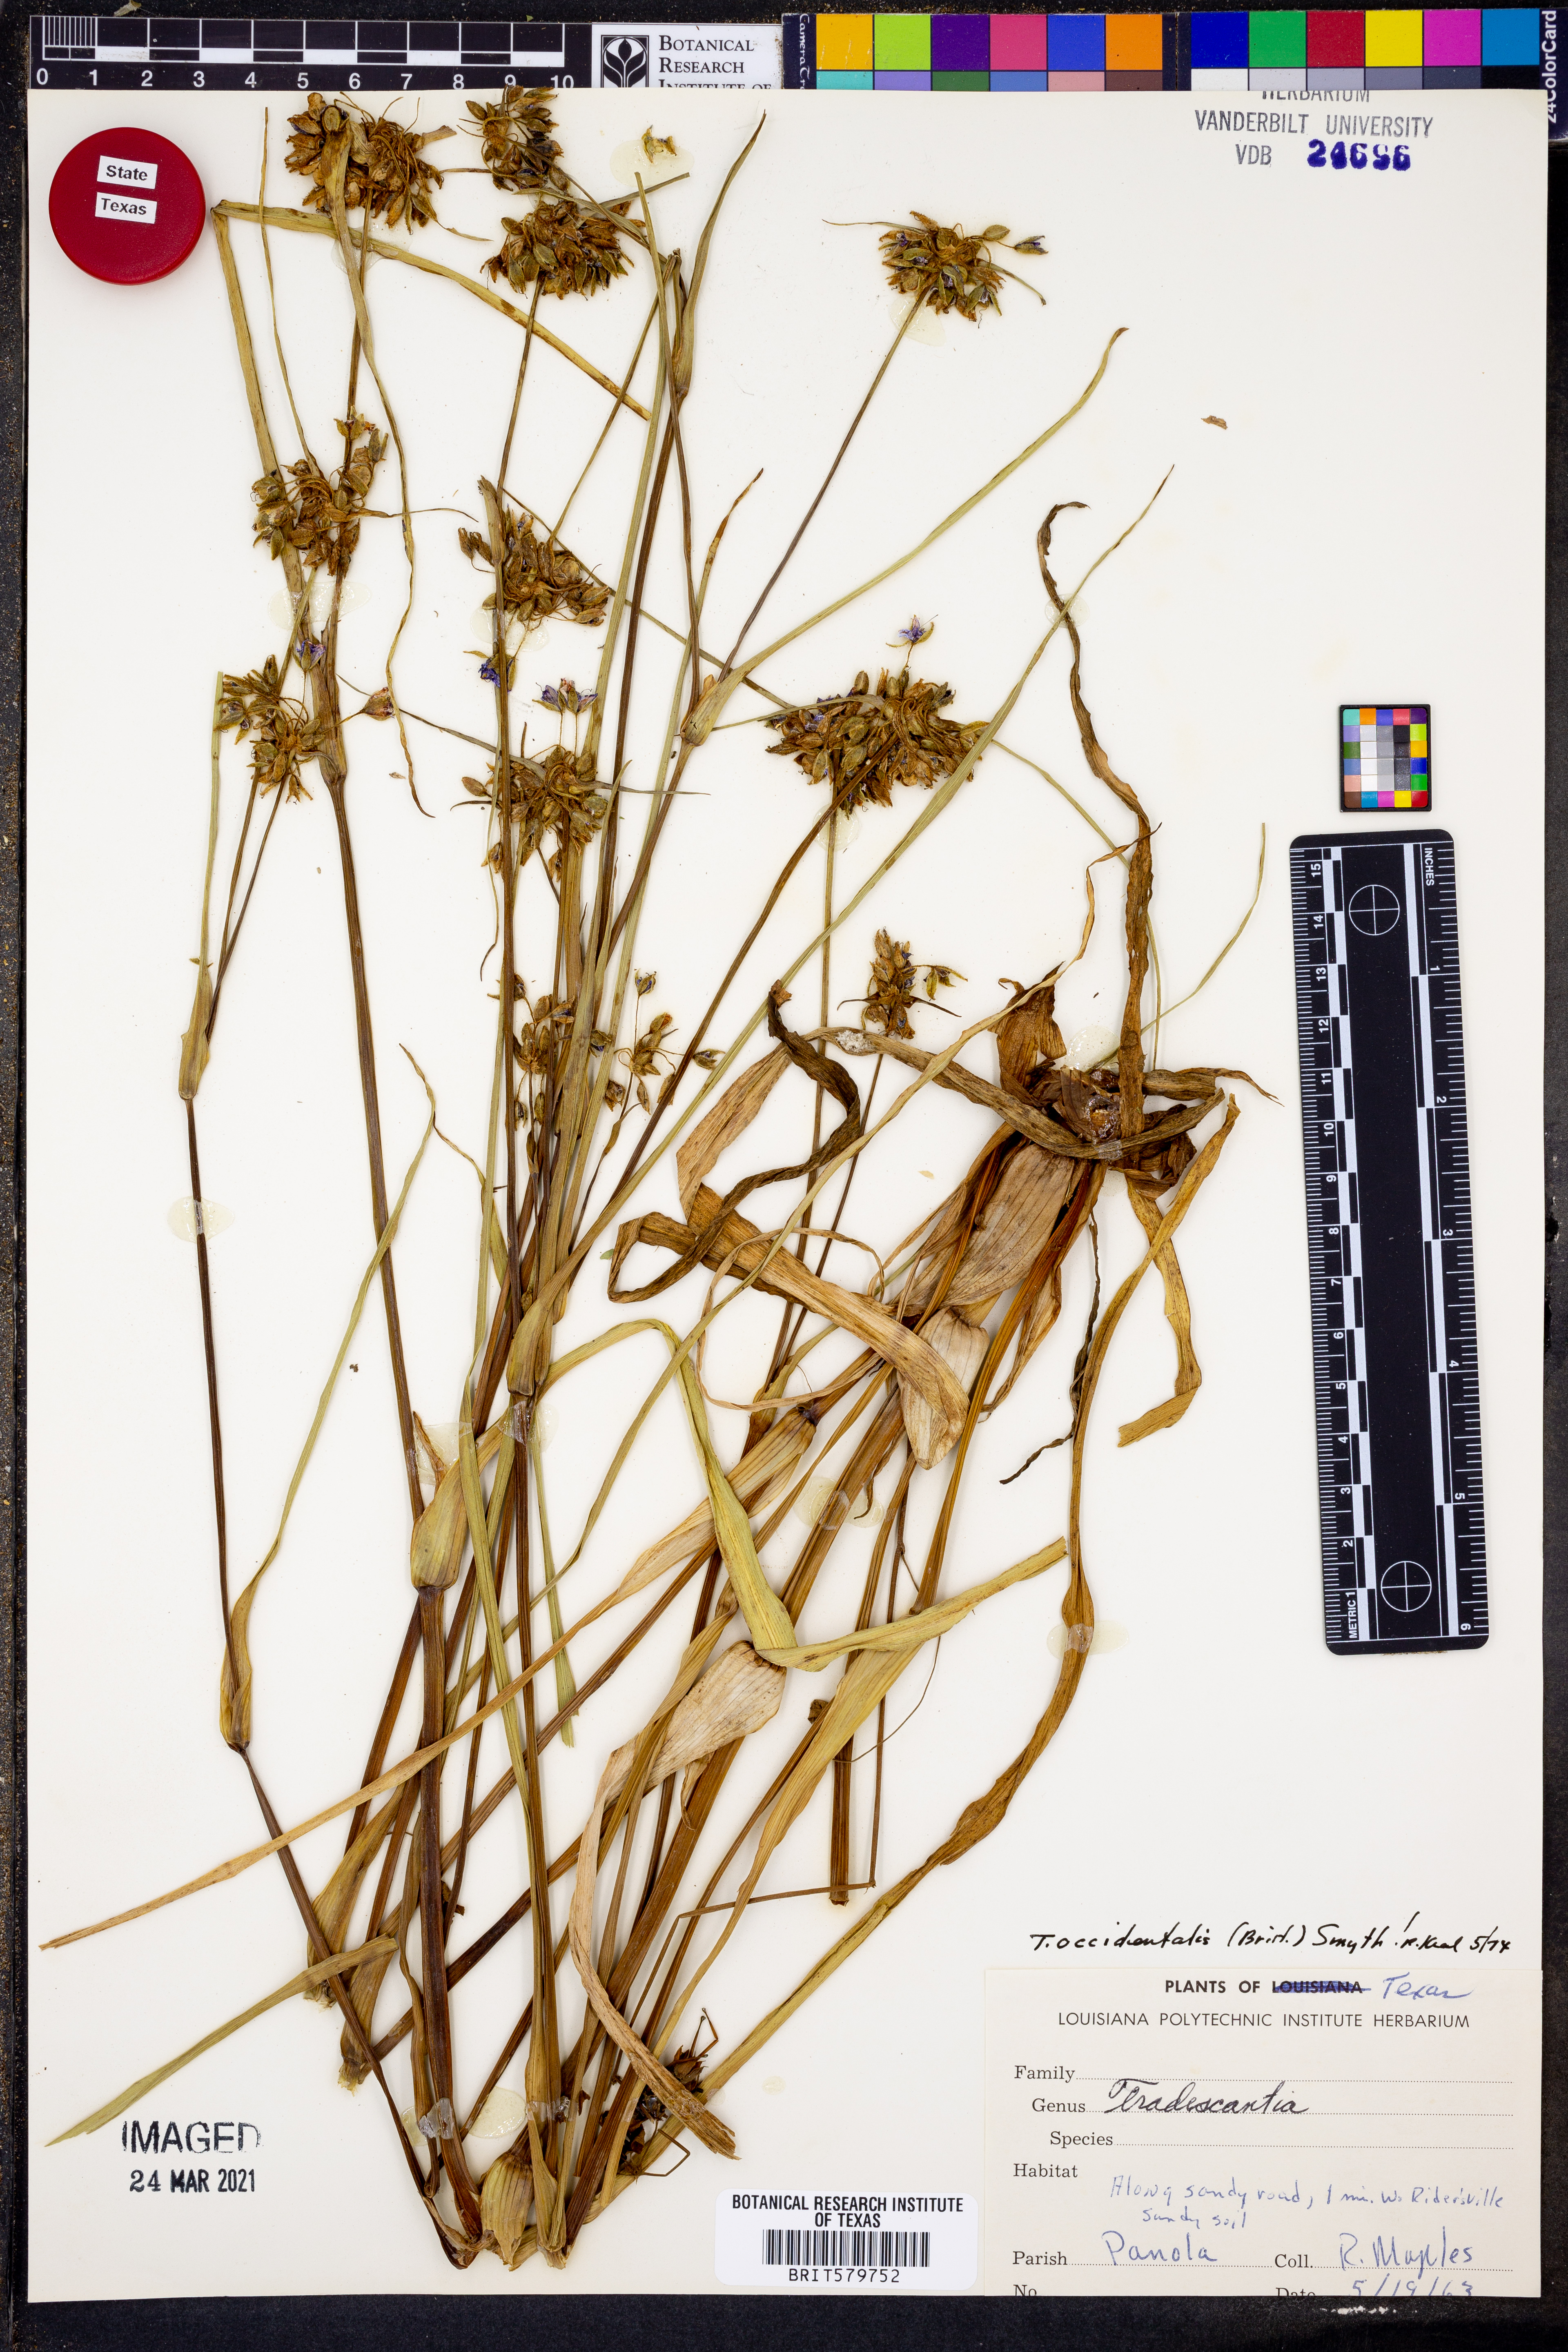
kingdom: Plantae
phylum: Tracheophyta
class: Liliopsida
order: Commelinales
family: Commelinaceae
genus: Tradescantia
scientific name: Tradescantia occidentalis
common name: Prairie spiderwort
